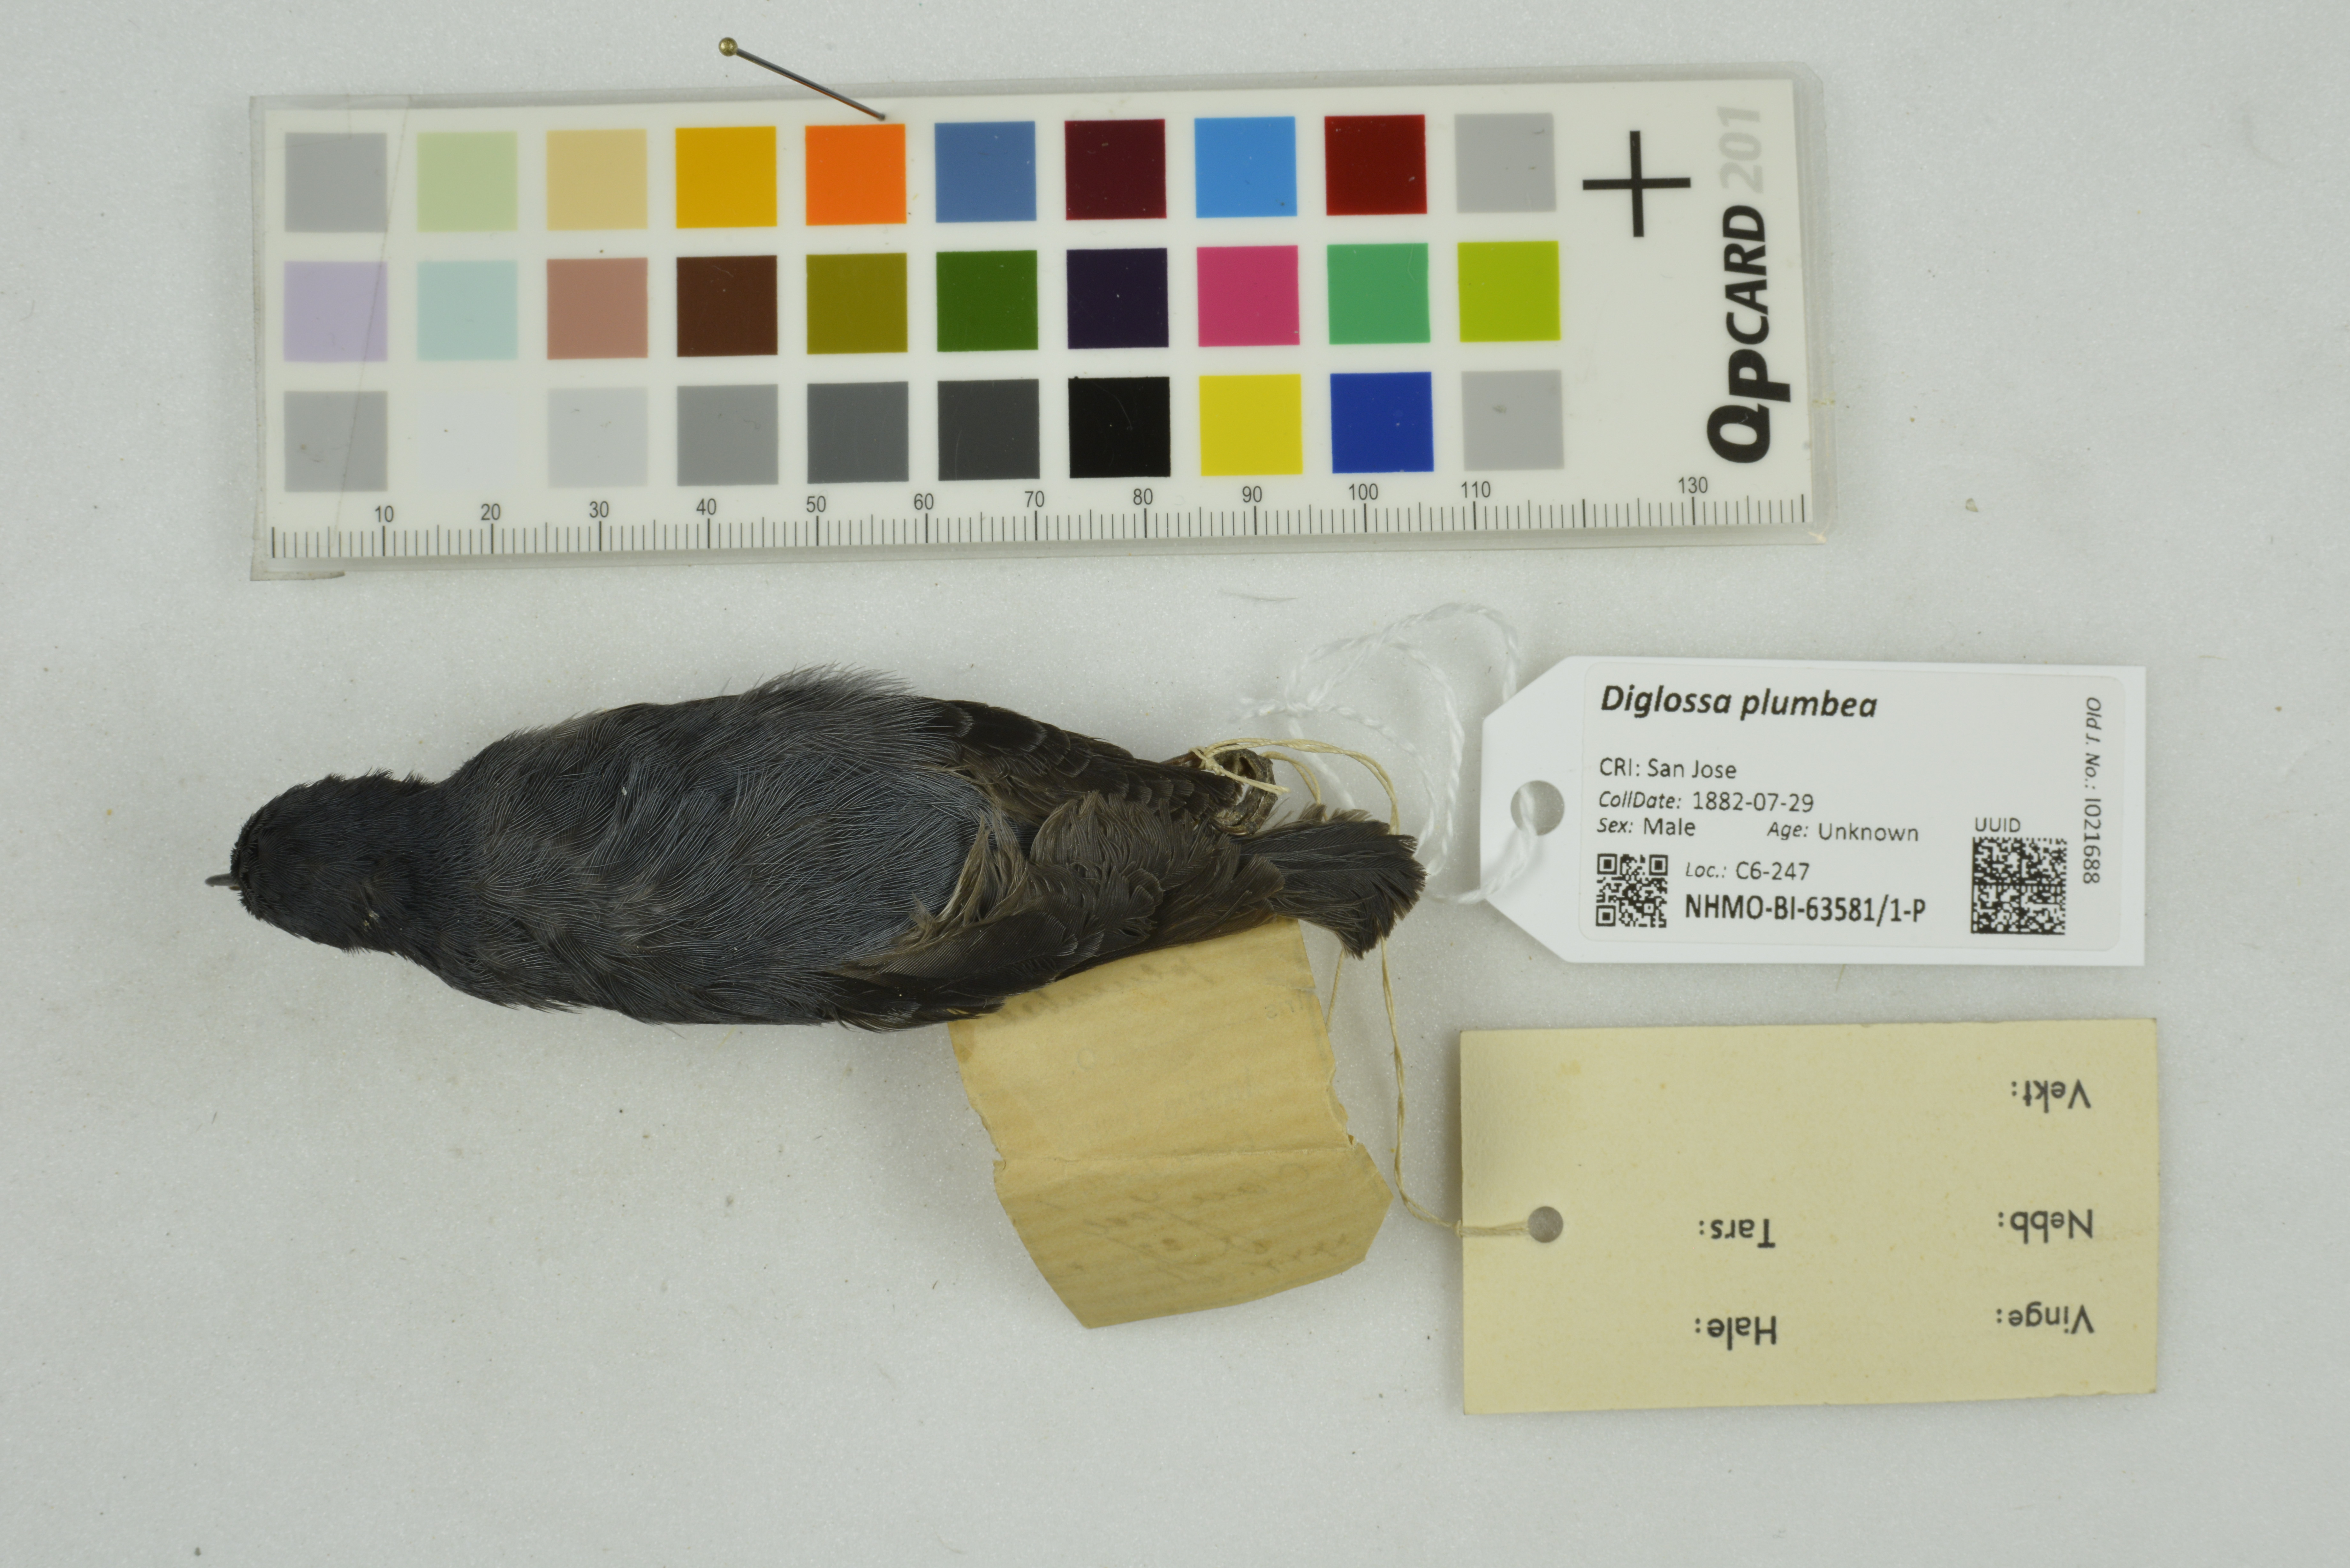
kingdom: Animalia
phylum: Chordata
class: Aves
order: Passeriformes
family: Thraupidae
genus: Diglossa
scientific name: Diglossa plumbea
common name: Slaty flowerpiercer
